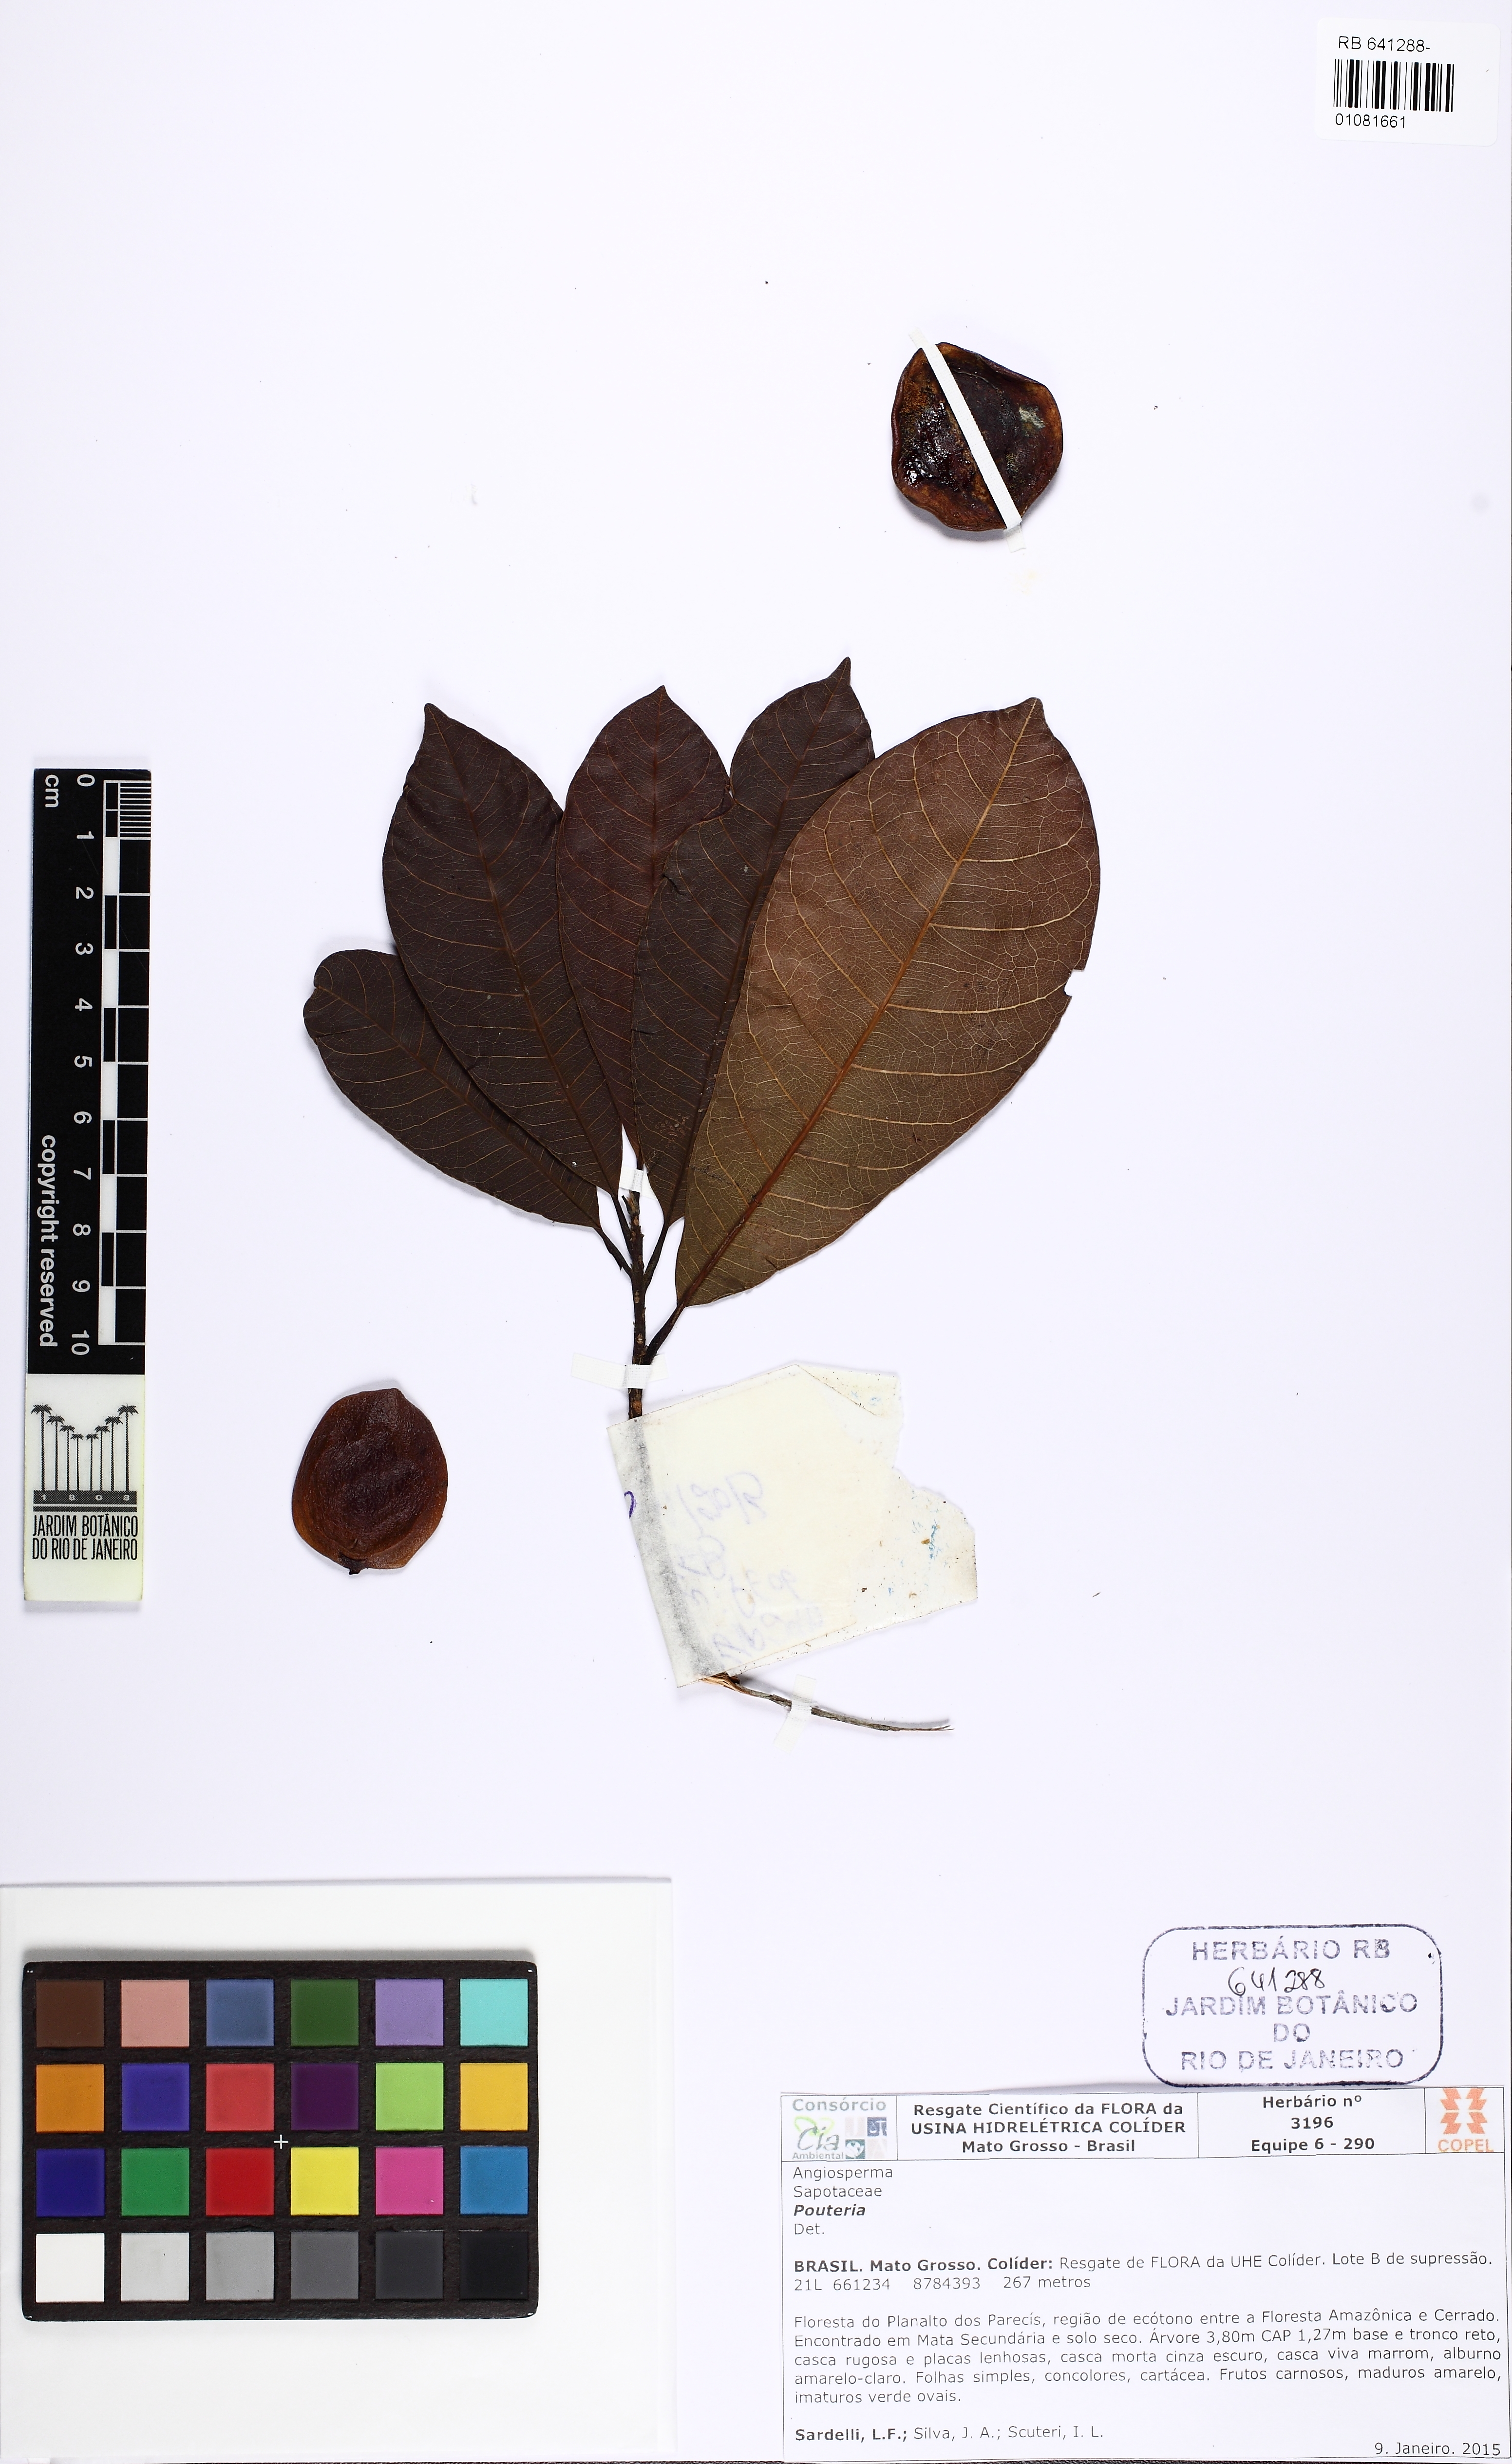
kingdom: Plantae
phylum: Tracheophyta
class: Magnoliopsida
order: Ericales
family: Sapotaceae
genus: Pouteria
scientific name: Pouteria guianensis
